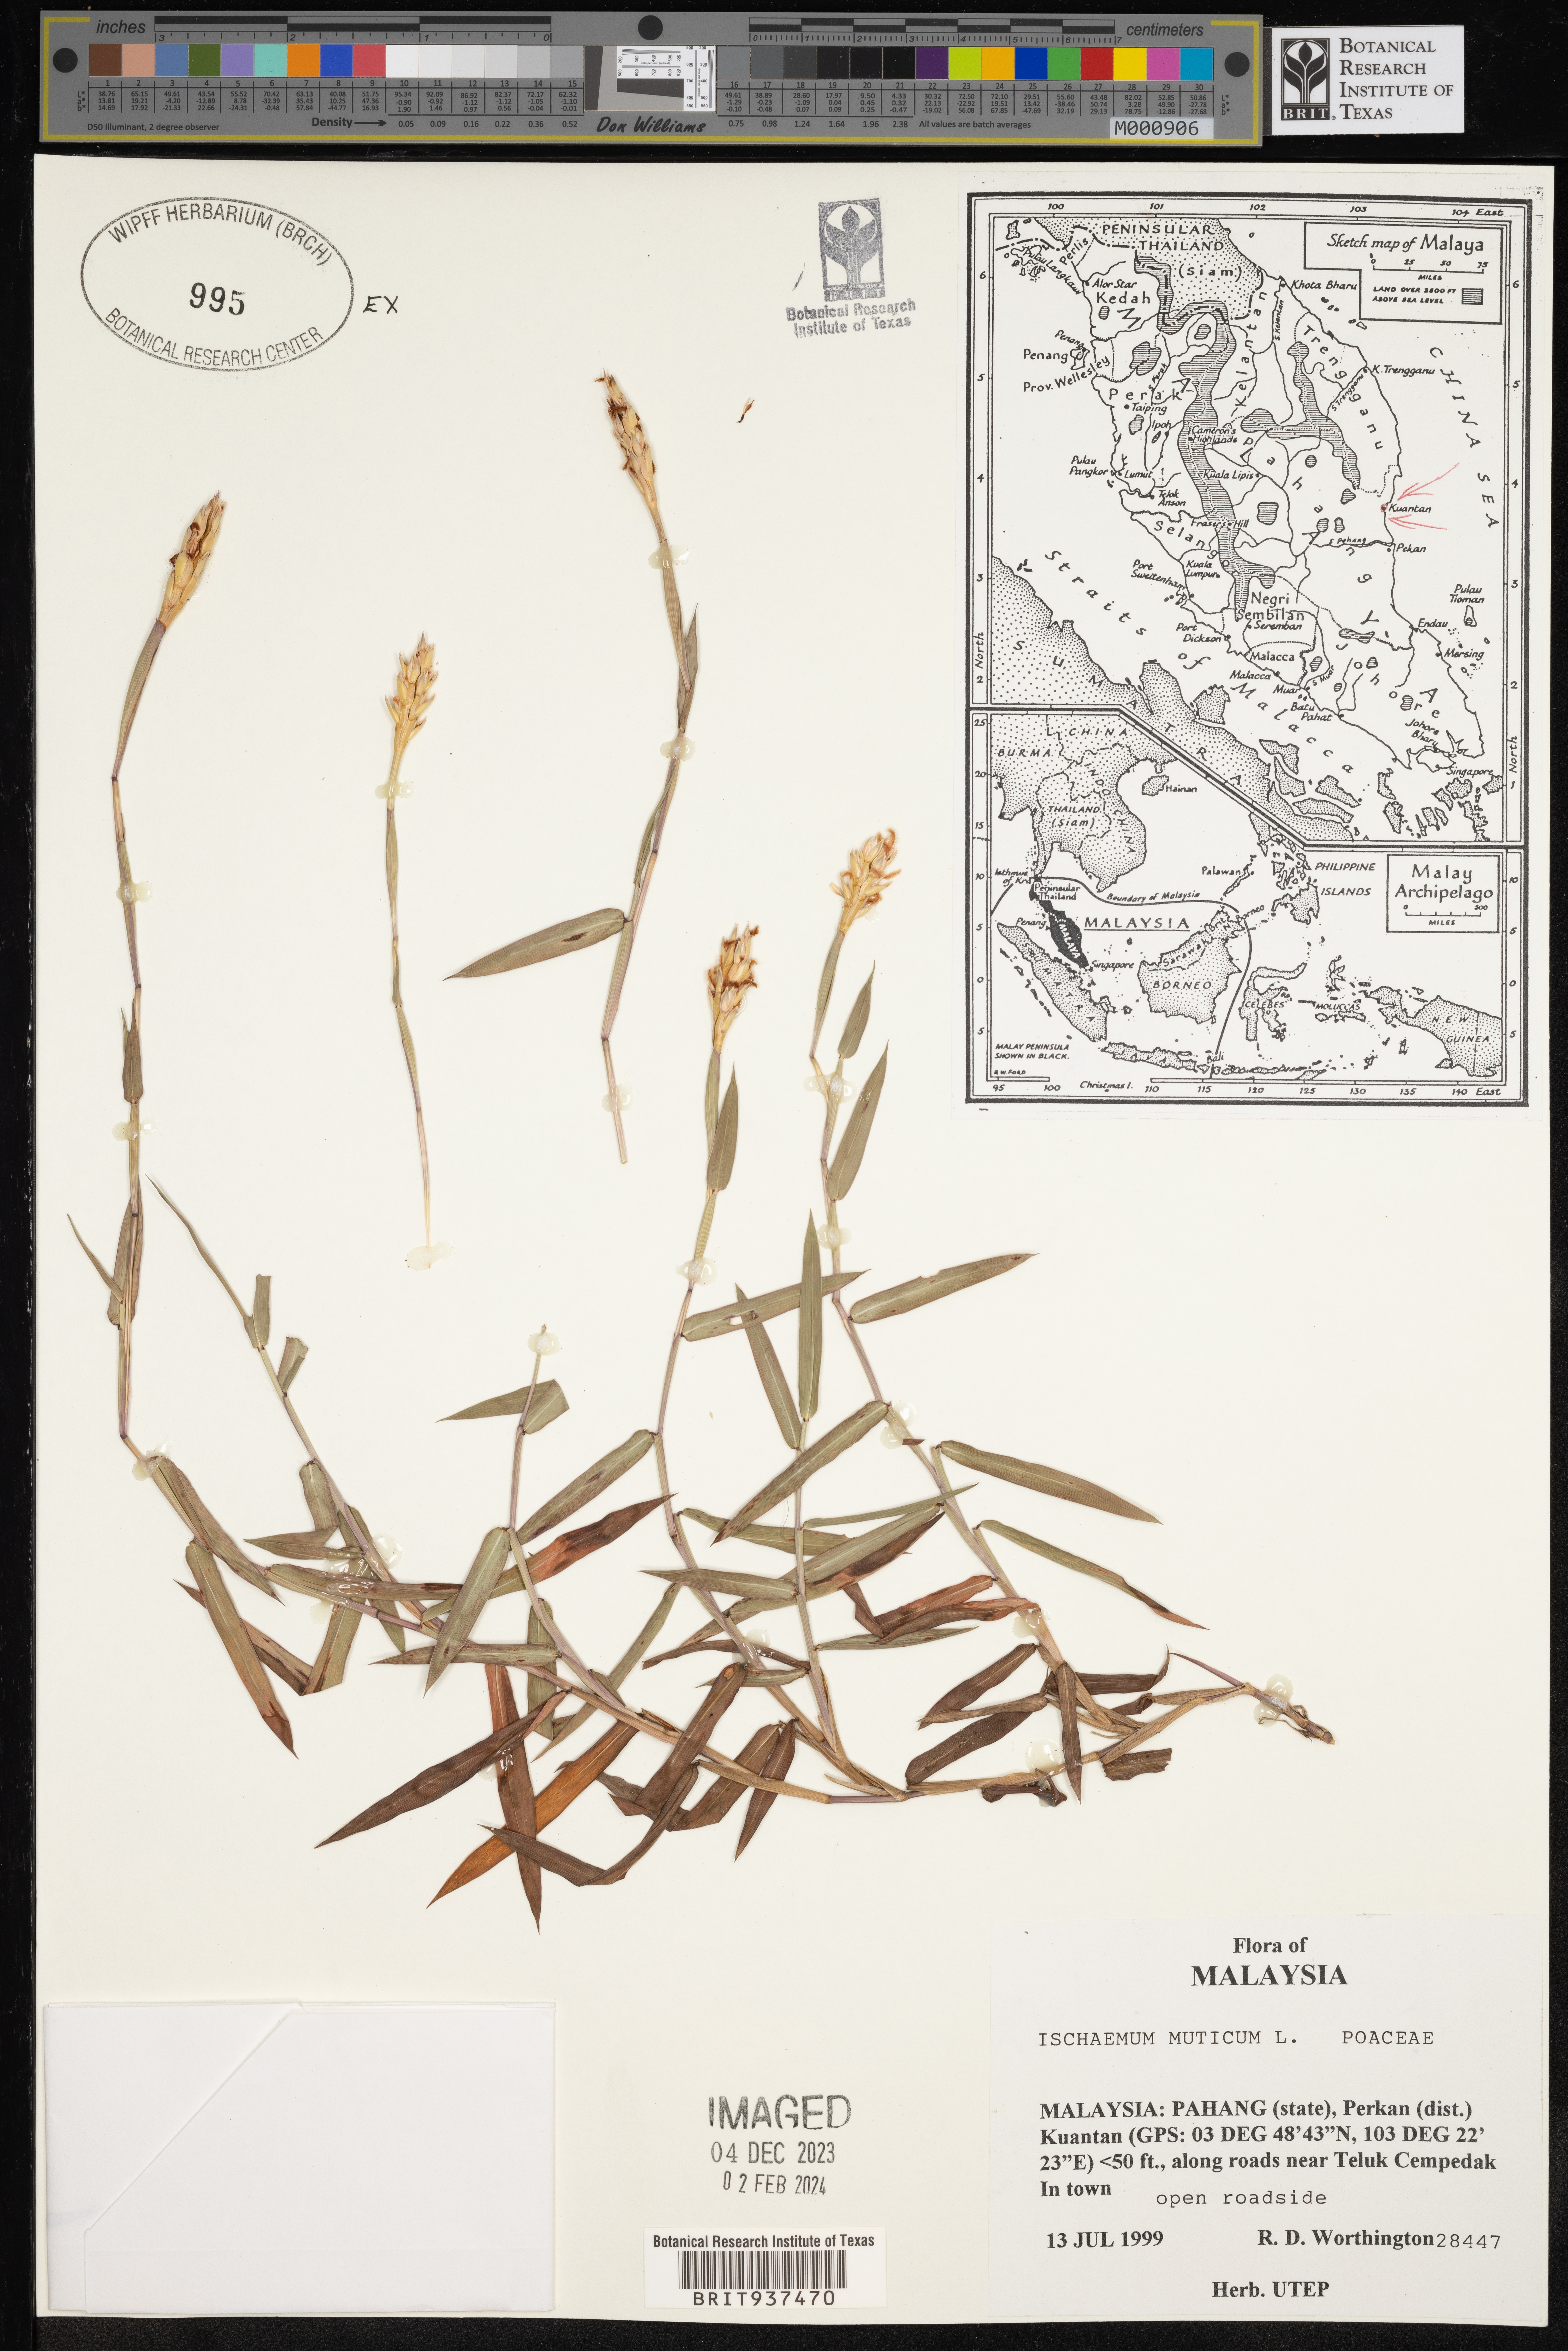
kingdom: Plantae
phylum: Tracheophyta
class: Liliopsida
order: Poales
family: Poaceae
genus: Ischaemum
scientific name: Ischaemum
